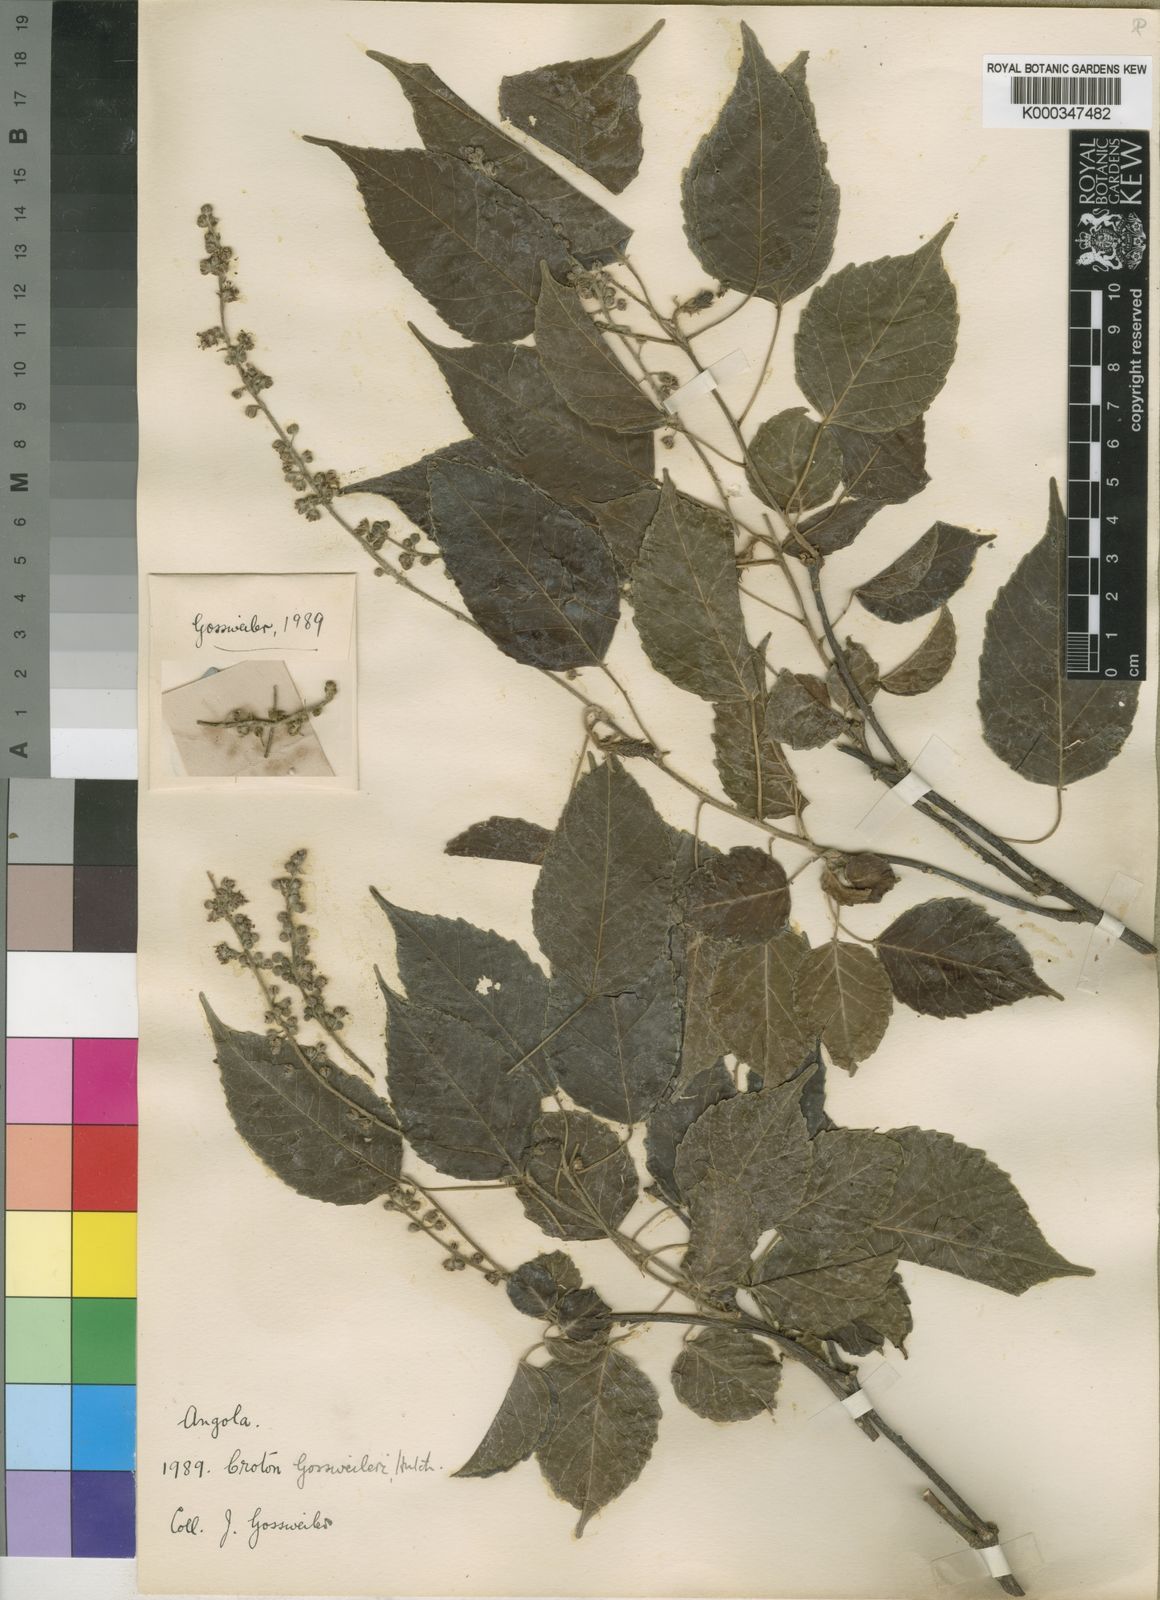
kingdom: Plantae
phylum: Tracheophyta
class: Magnoliopsida
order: Malpighiales
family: Euphorbiaceae
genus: Croton
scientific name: Croton gossweileri
